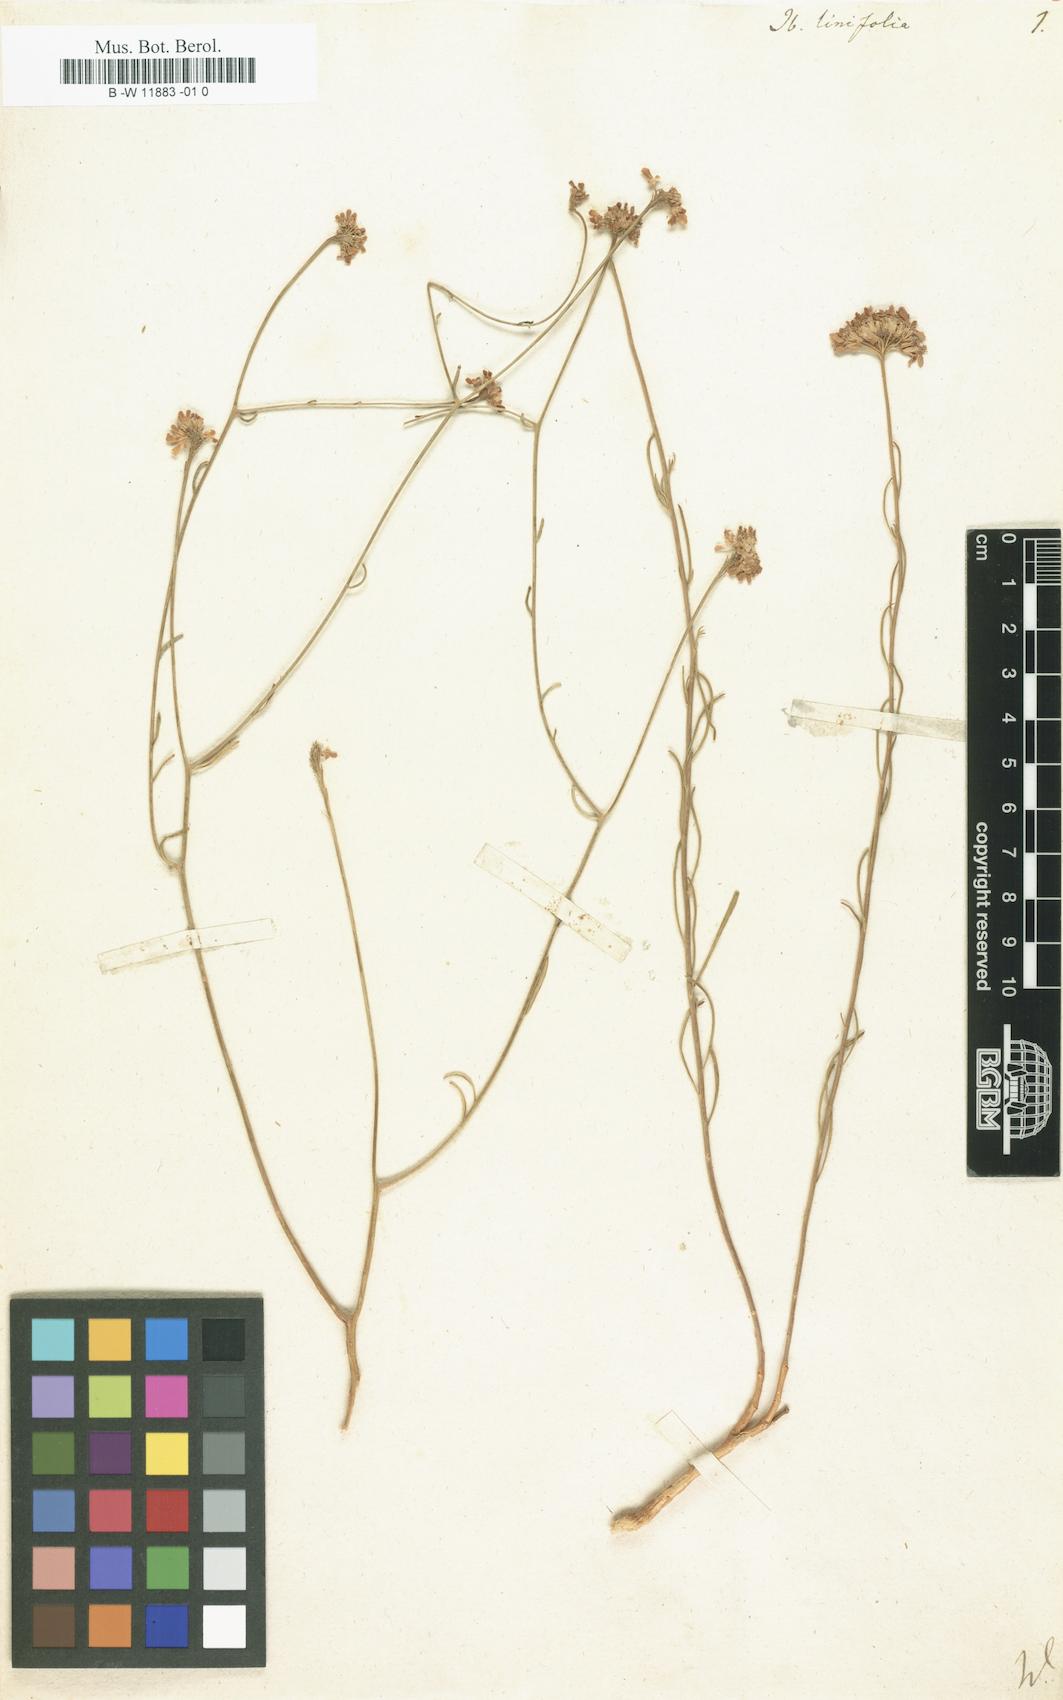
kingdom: Plantae
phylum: Tracheophyta
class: Magnoliopsida
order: Brassicales
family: Brassicaceae
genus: Lepidium
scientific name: Lepidium linifolium
